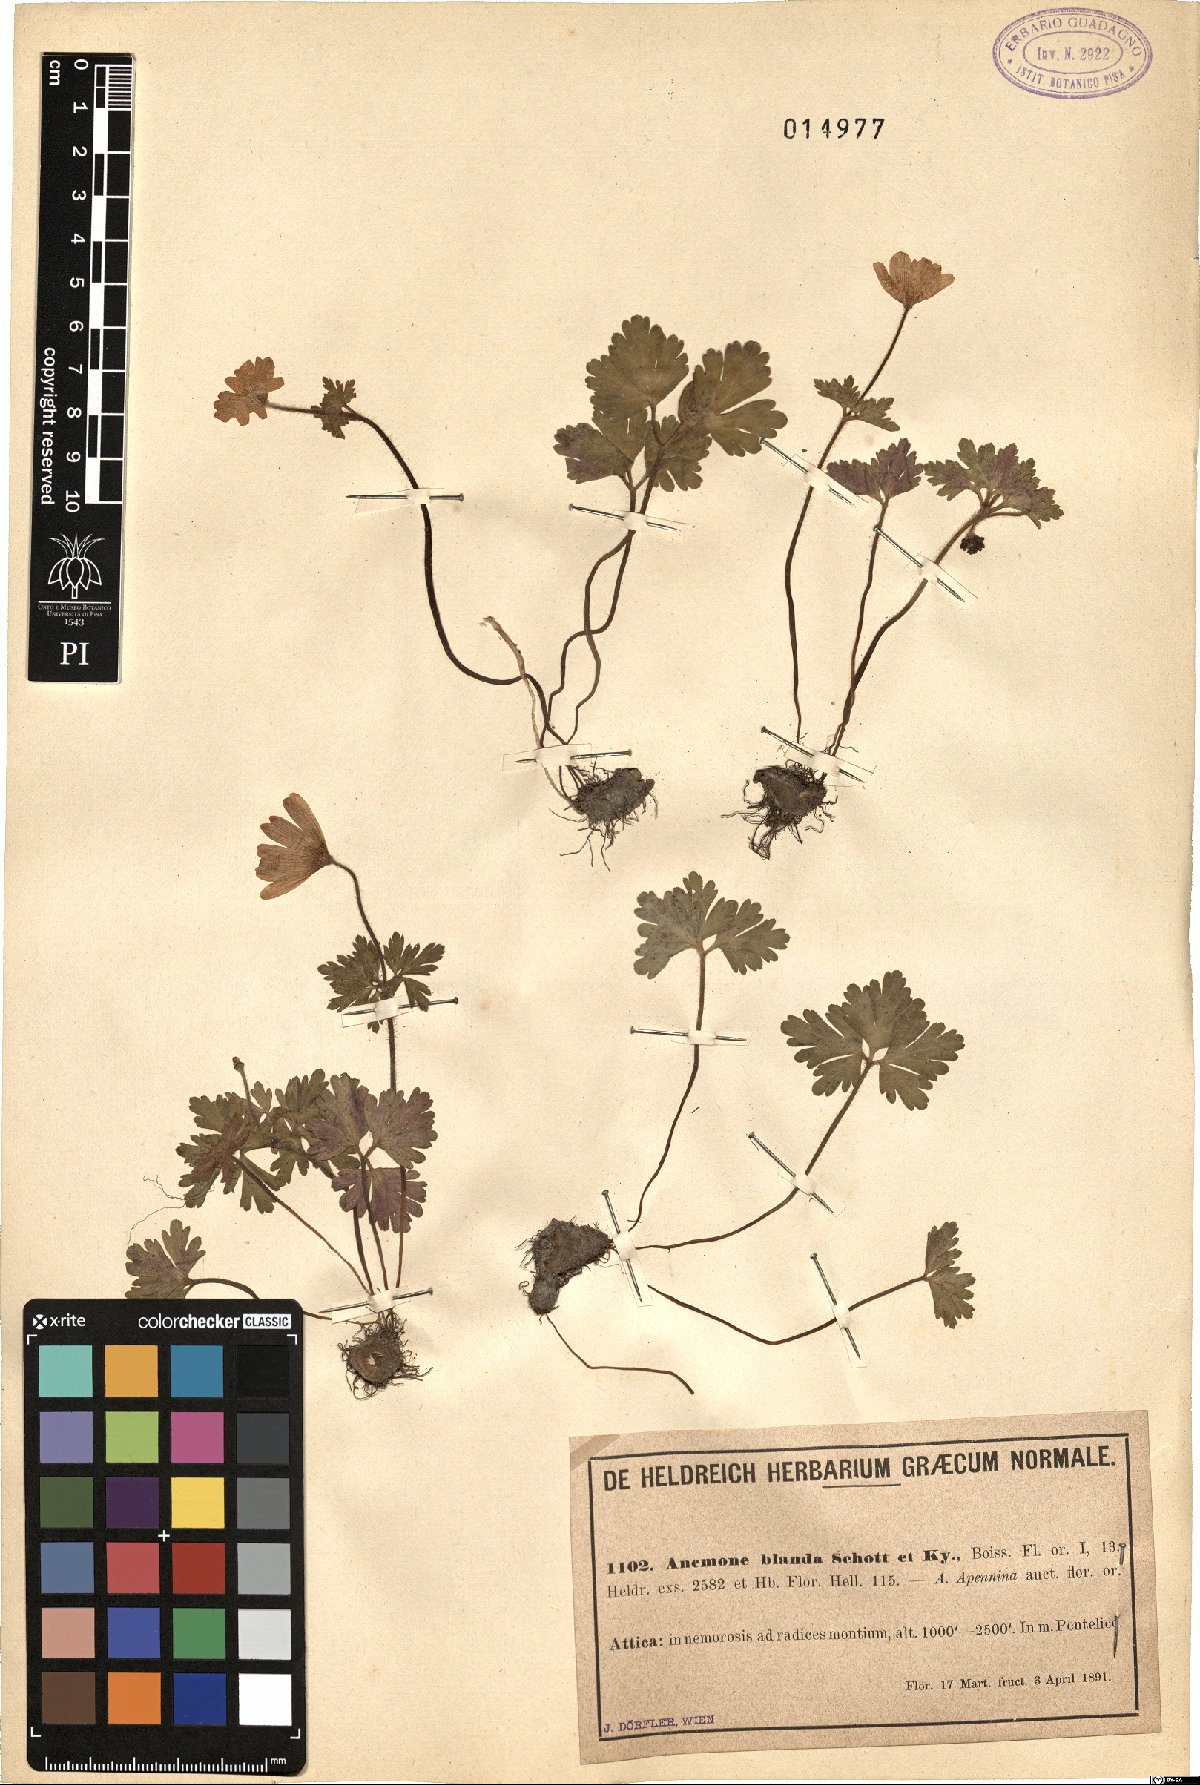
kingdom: Plantae
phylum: Tracheophyta
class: Magnoliopsida
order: Ranunculales
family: Ranunculaceae
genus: Anemone
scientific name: Anemone blanda
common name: Balkan anemone
